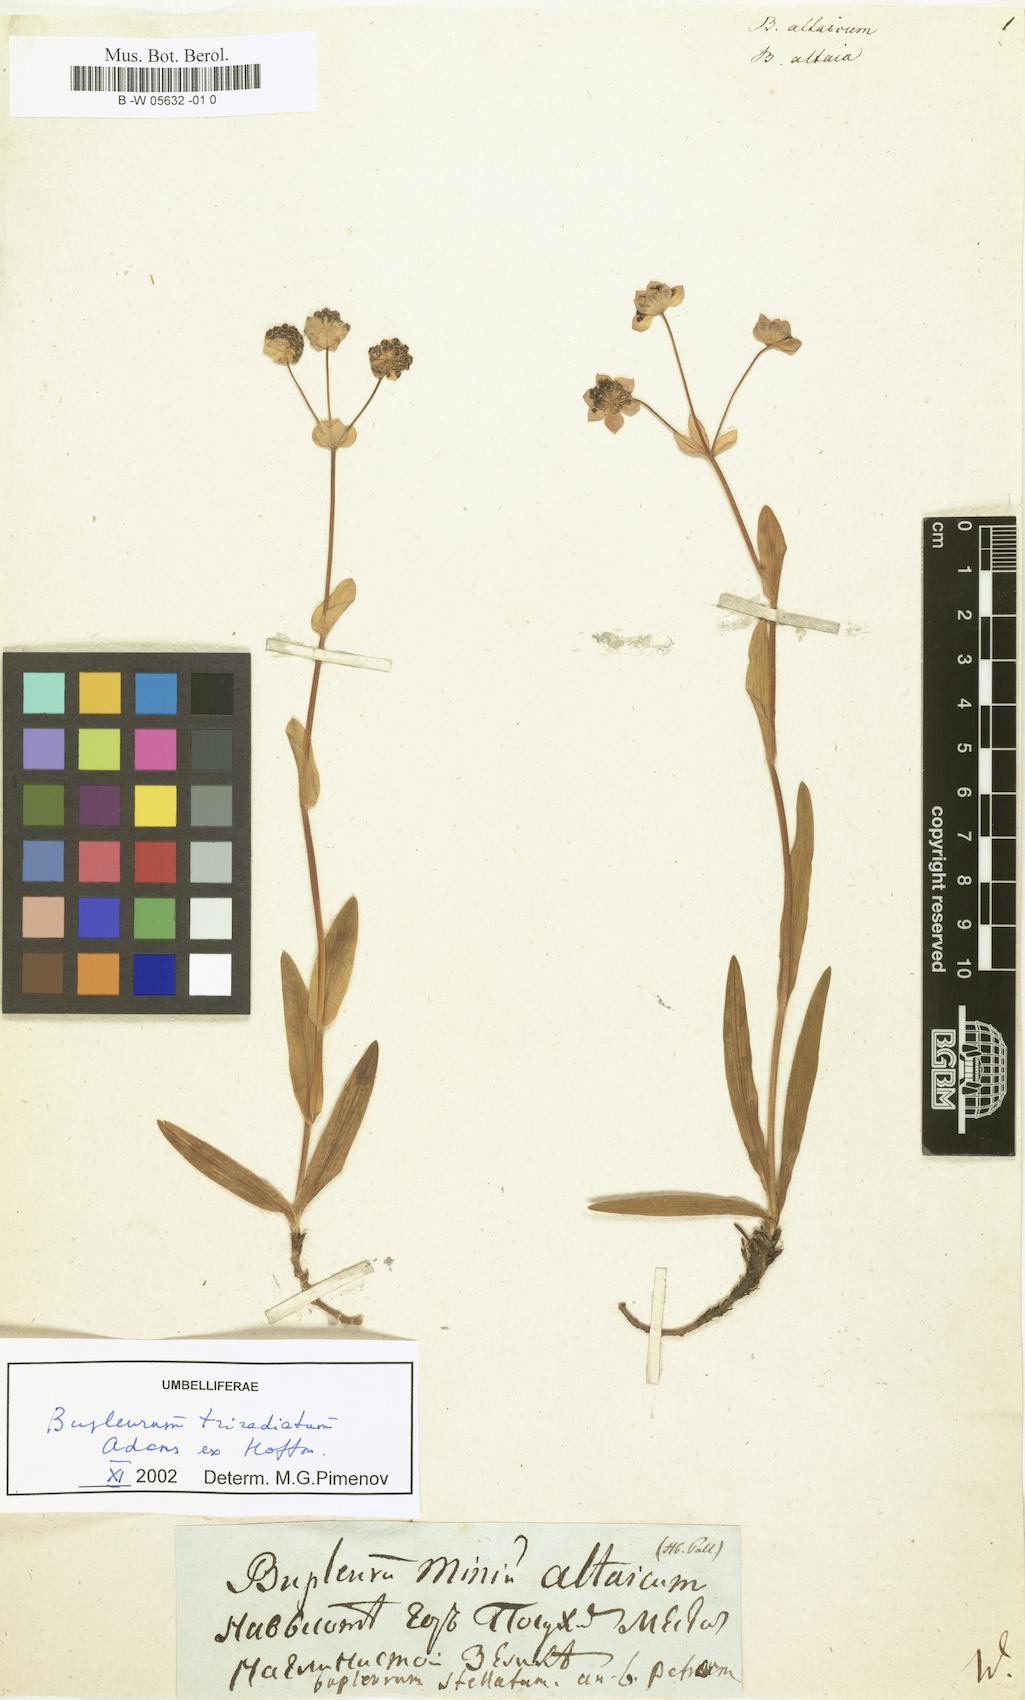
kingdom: Plantae
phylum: Tracheophyta
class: Magnoliopsida
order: Apiales
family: Apiaceae
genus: Bupleurum
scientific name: Bupleurum triradiatum
